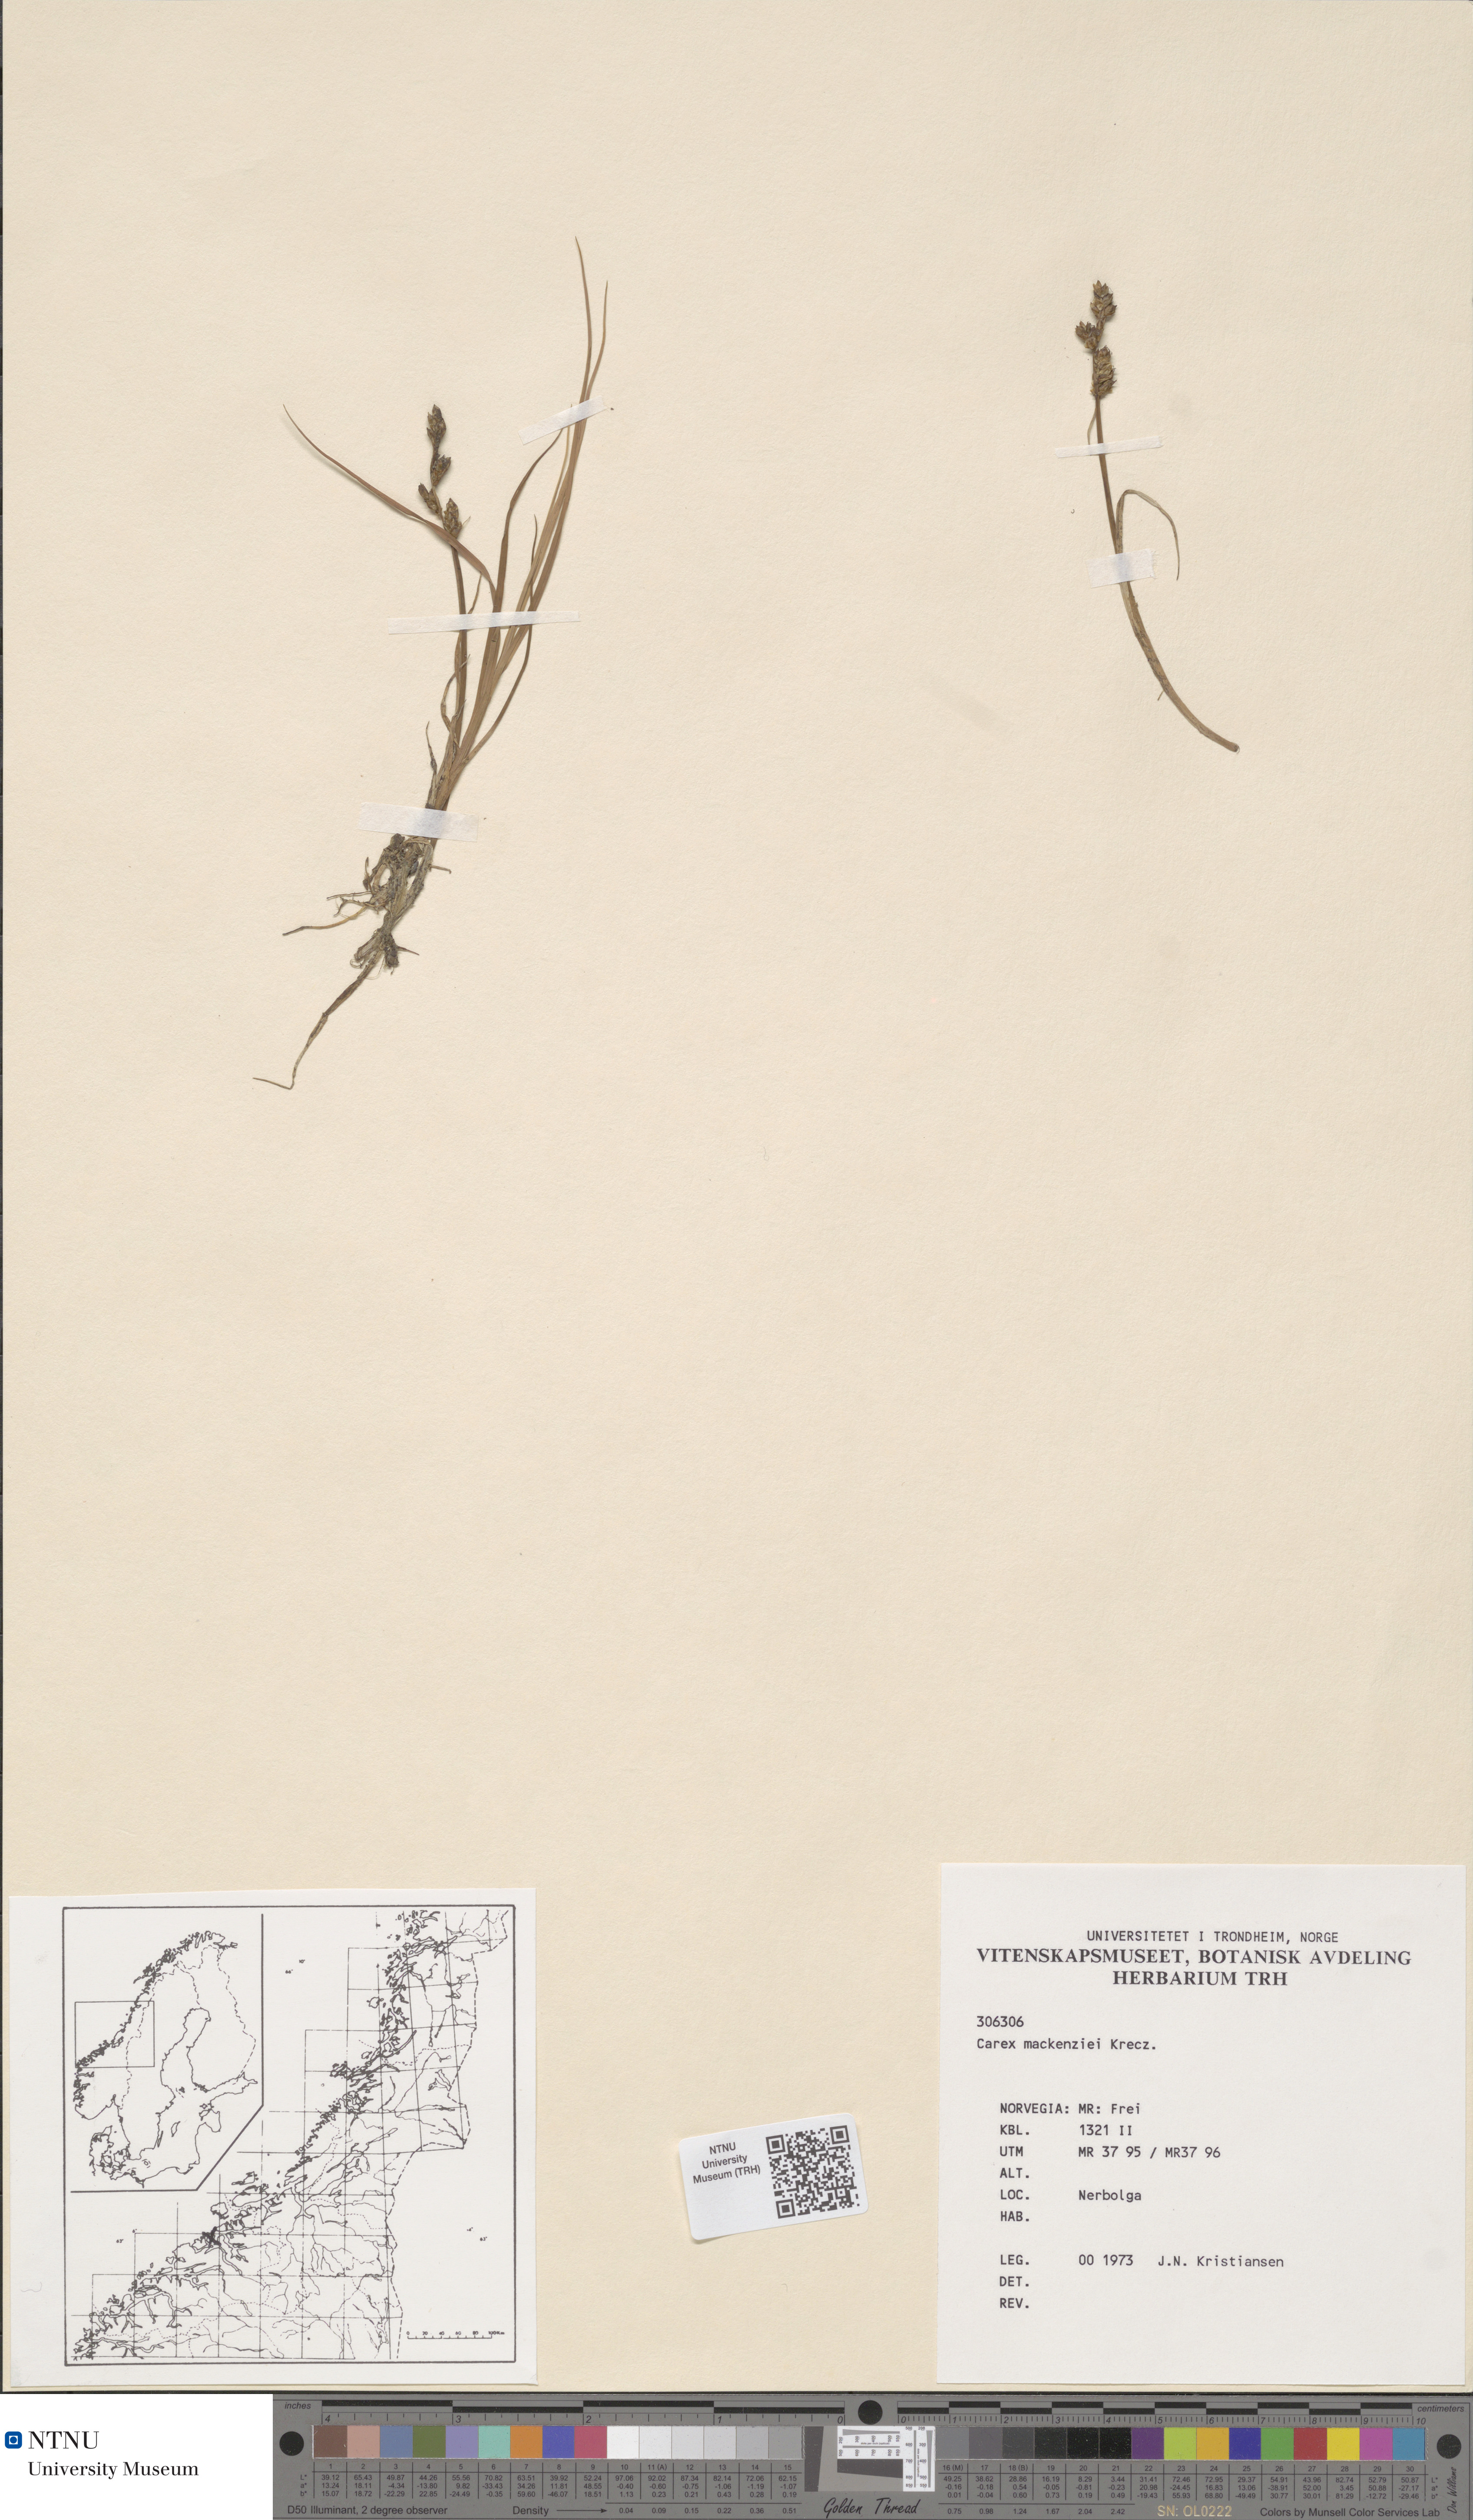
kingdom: Plantae
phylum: Tracheophyta
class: Liliopsida
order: Poales
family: Cyperaceae
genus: Carex
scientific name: Carex mackenziei
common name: Mackenzie's sedge
